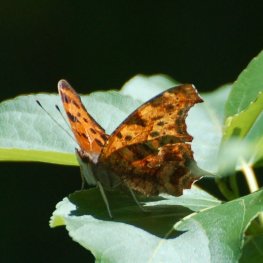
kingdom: Animalia
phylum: Arthropoda
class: Insecta
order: Lepidoptera
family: Nymphalidae
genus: Polygonia
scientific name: Polygonia interrogationis
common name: Question Mark
